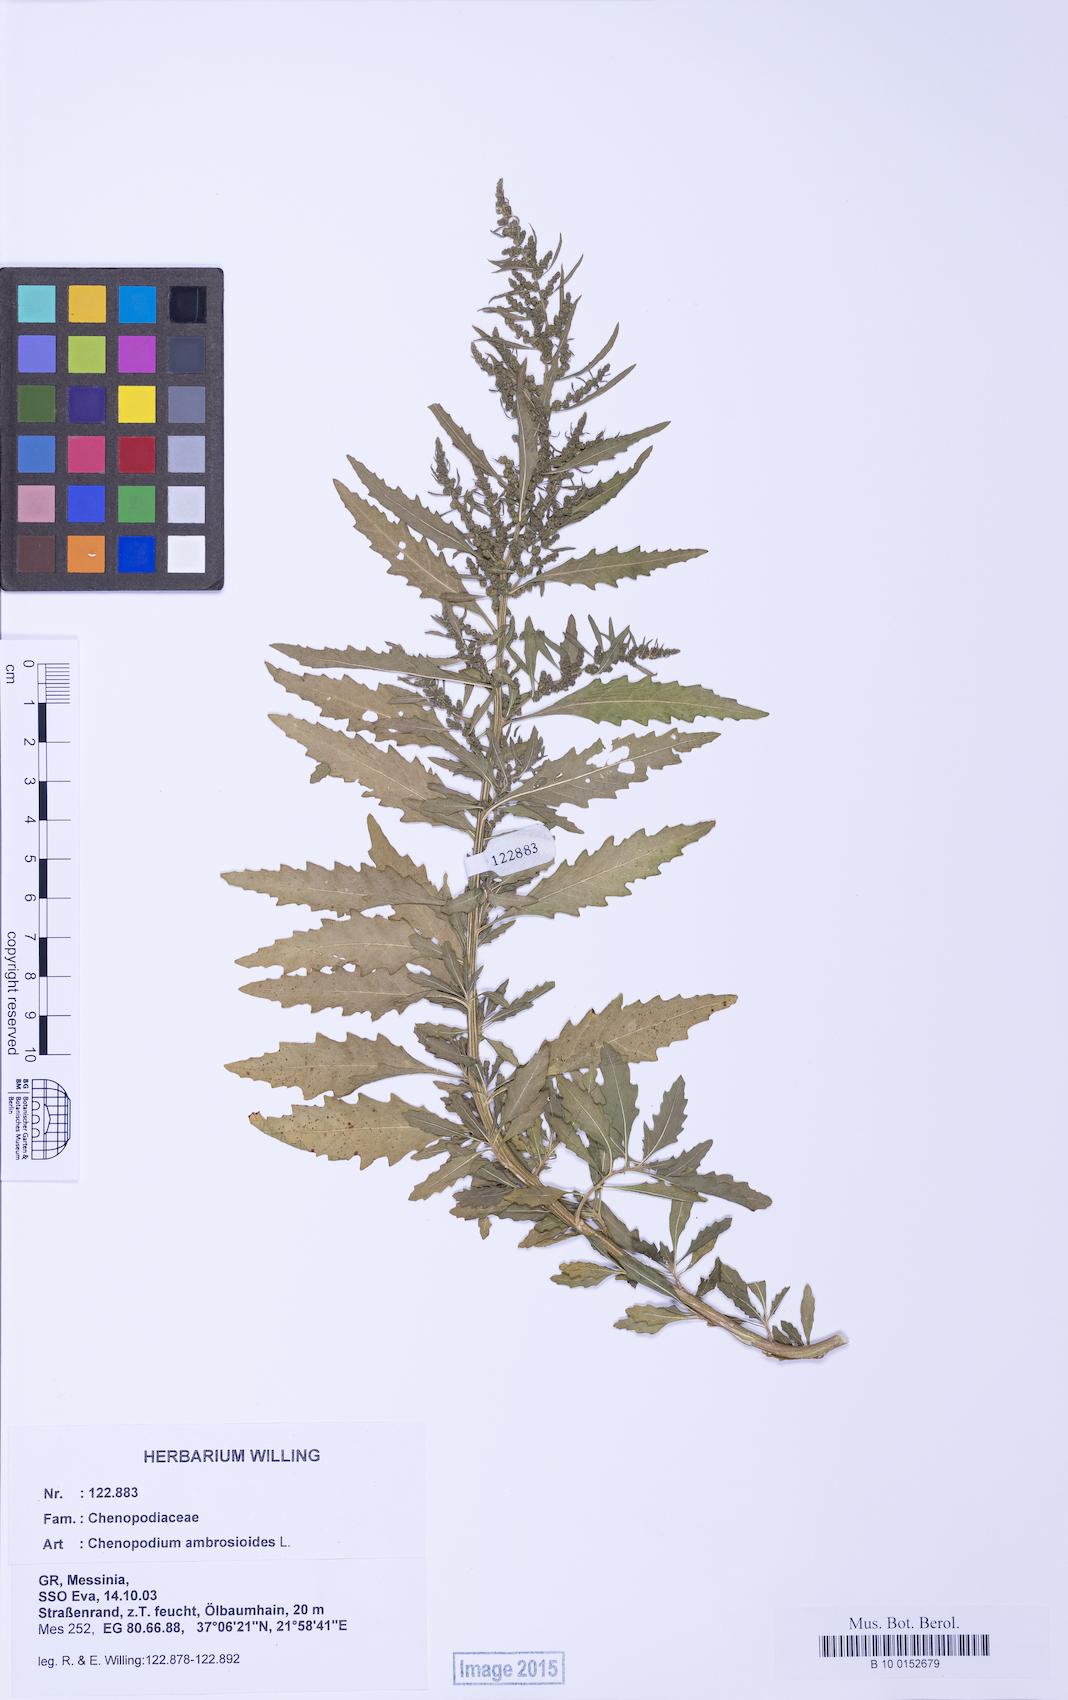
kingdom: Plantae
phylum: Tracheophyta
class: Magnoliopsida
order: Caryophyllales
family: Amaranthaceae
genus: Dysphania
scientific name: Dysphania ambrosioides
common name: Wormseed
